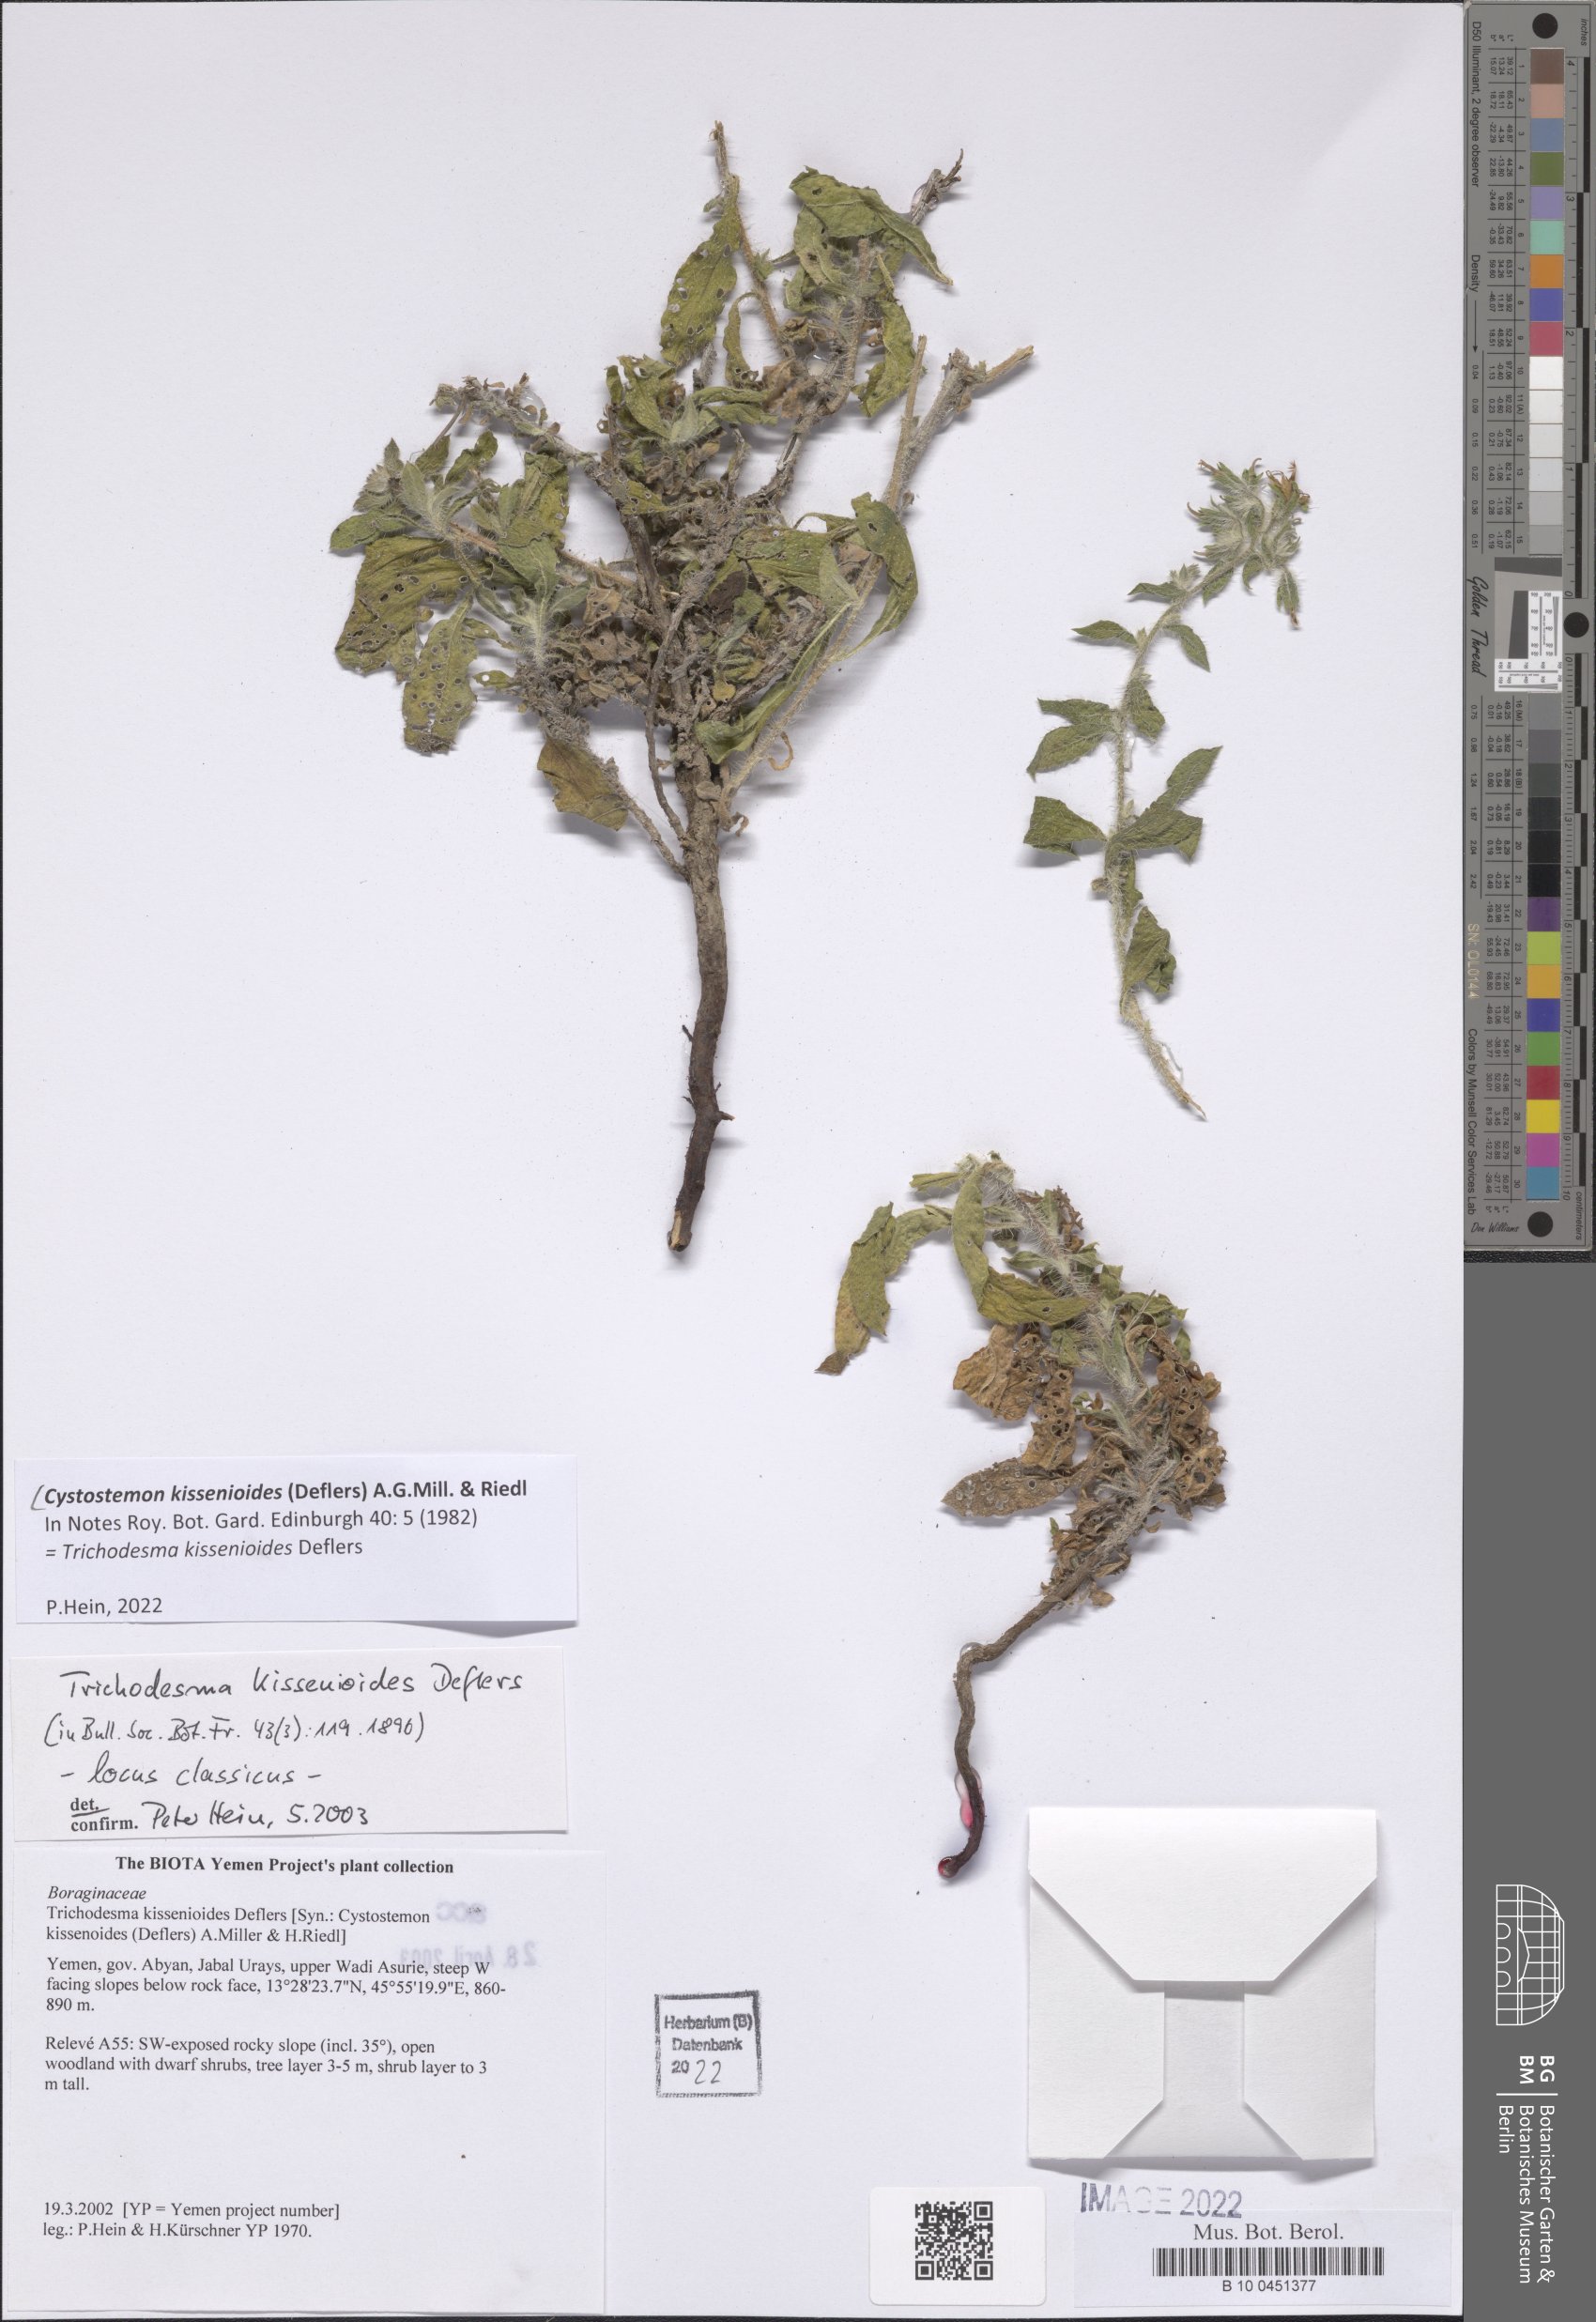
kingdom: Plantae
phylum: Tracheophyta
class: Magnoliopsida
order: Boraginales
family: Boraginaceae
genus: Cystostemon
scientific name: Cystostemon kissenioides
